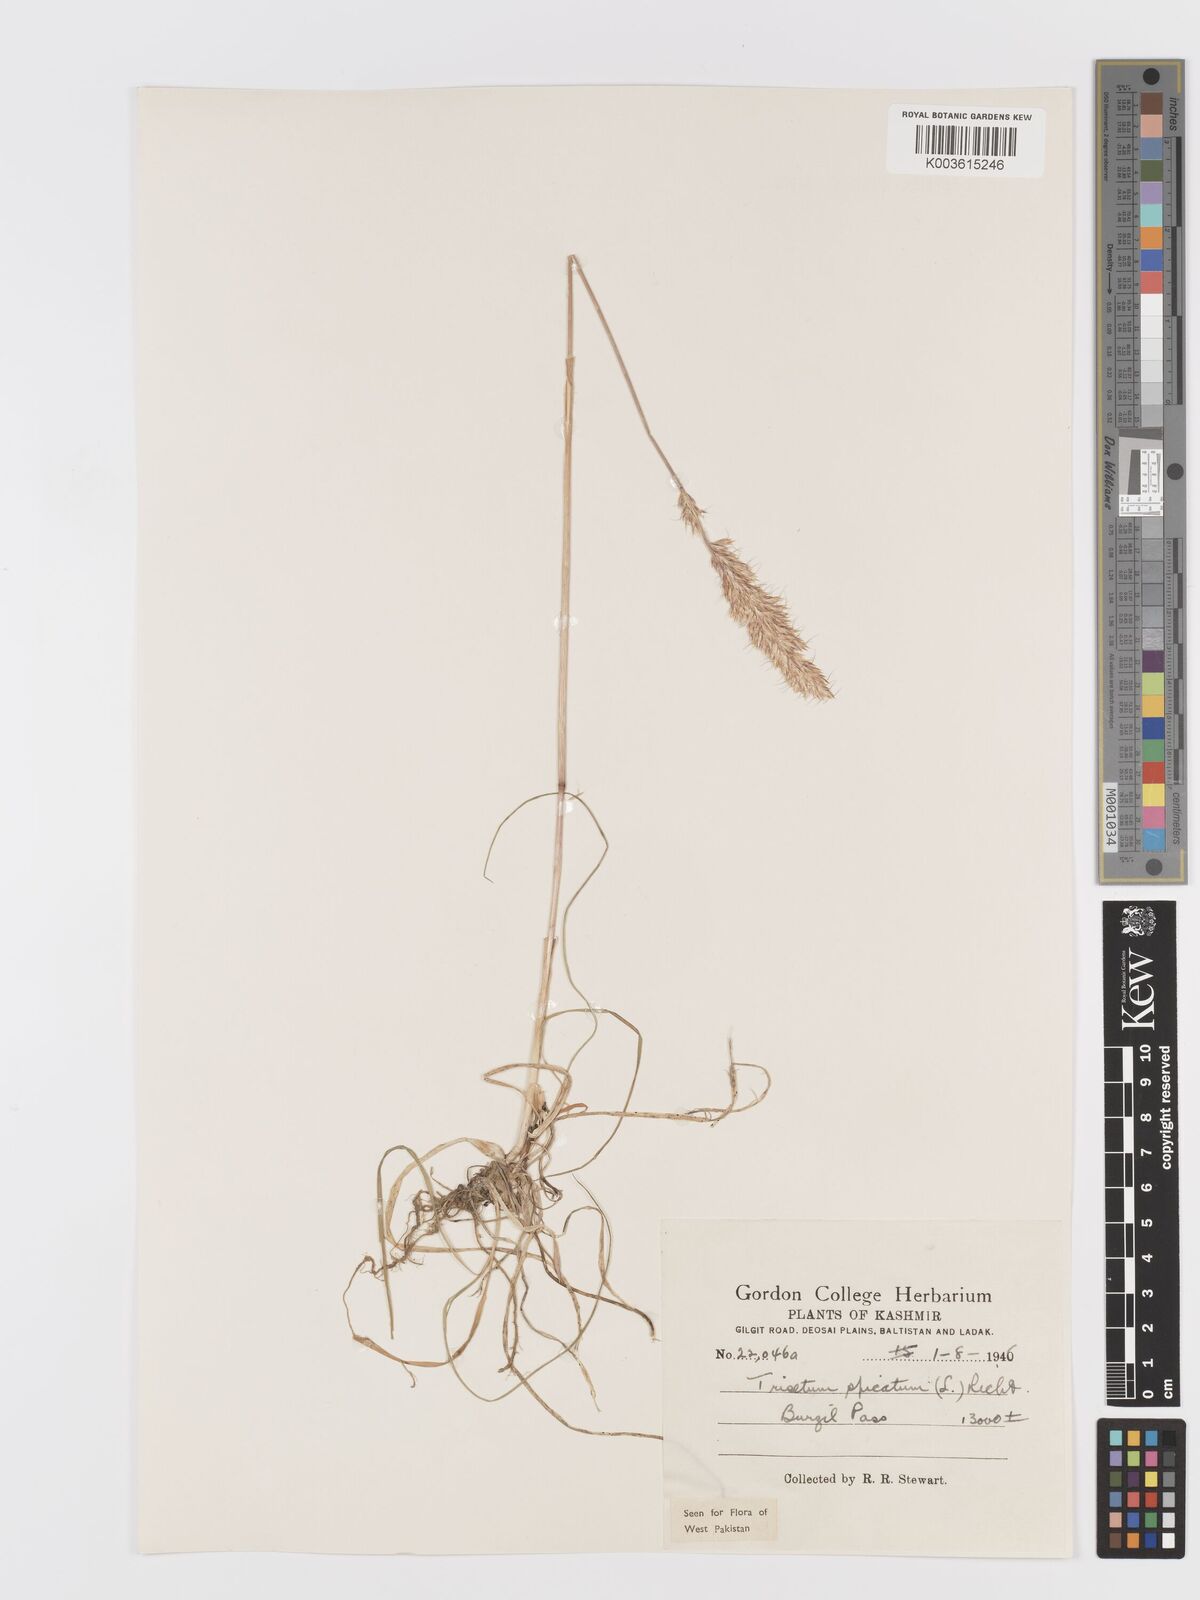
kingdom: Plantae
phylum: Tracheophyta
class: Liliopsida
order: Poales
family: Poaceae
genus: Koeleria
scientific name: Koeleria spicata
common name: Mountain trisetum
